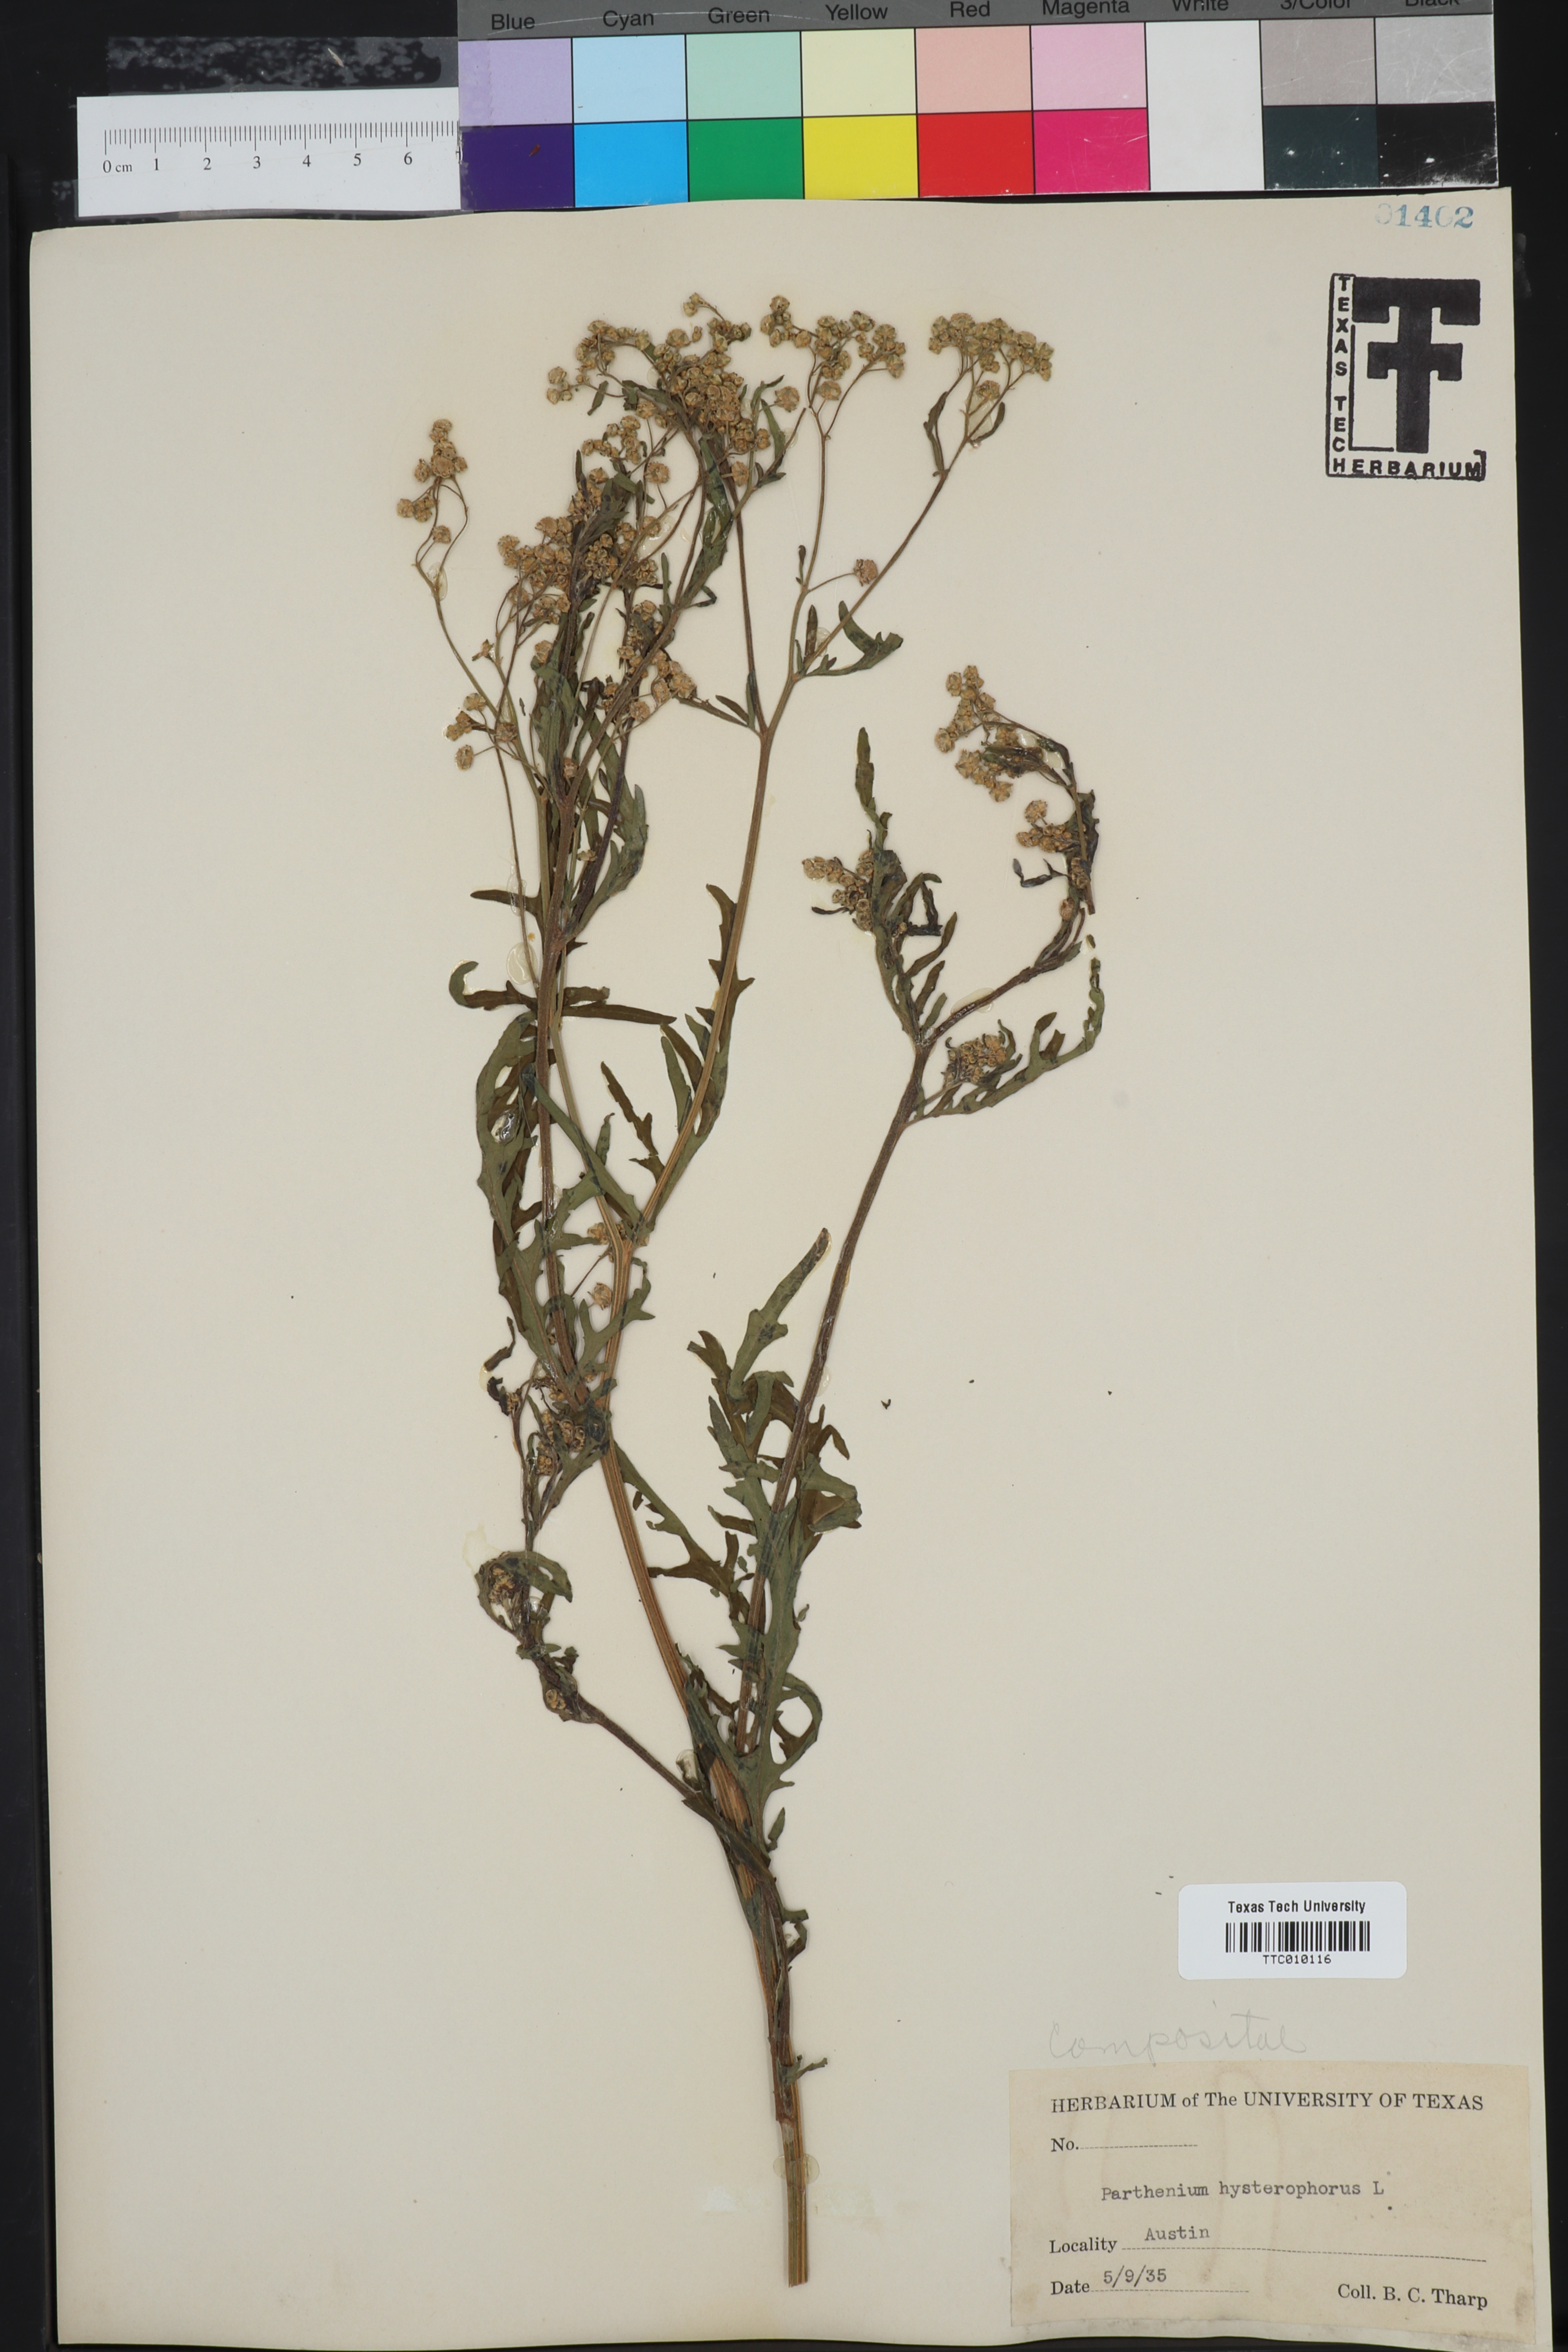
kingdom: Plantae
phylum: Tracheophyta
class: Magnoliopsida
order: Asterales
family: Asteraceae
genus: Parthenium
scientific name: Parthenium hysterophorus
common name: Santa maria feverfew
